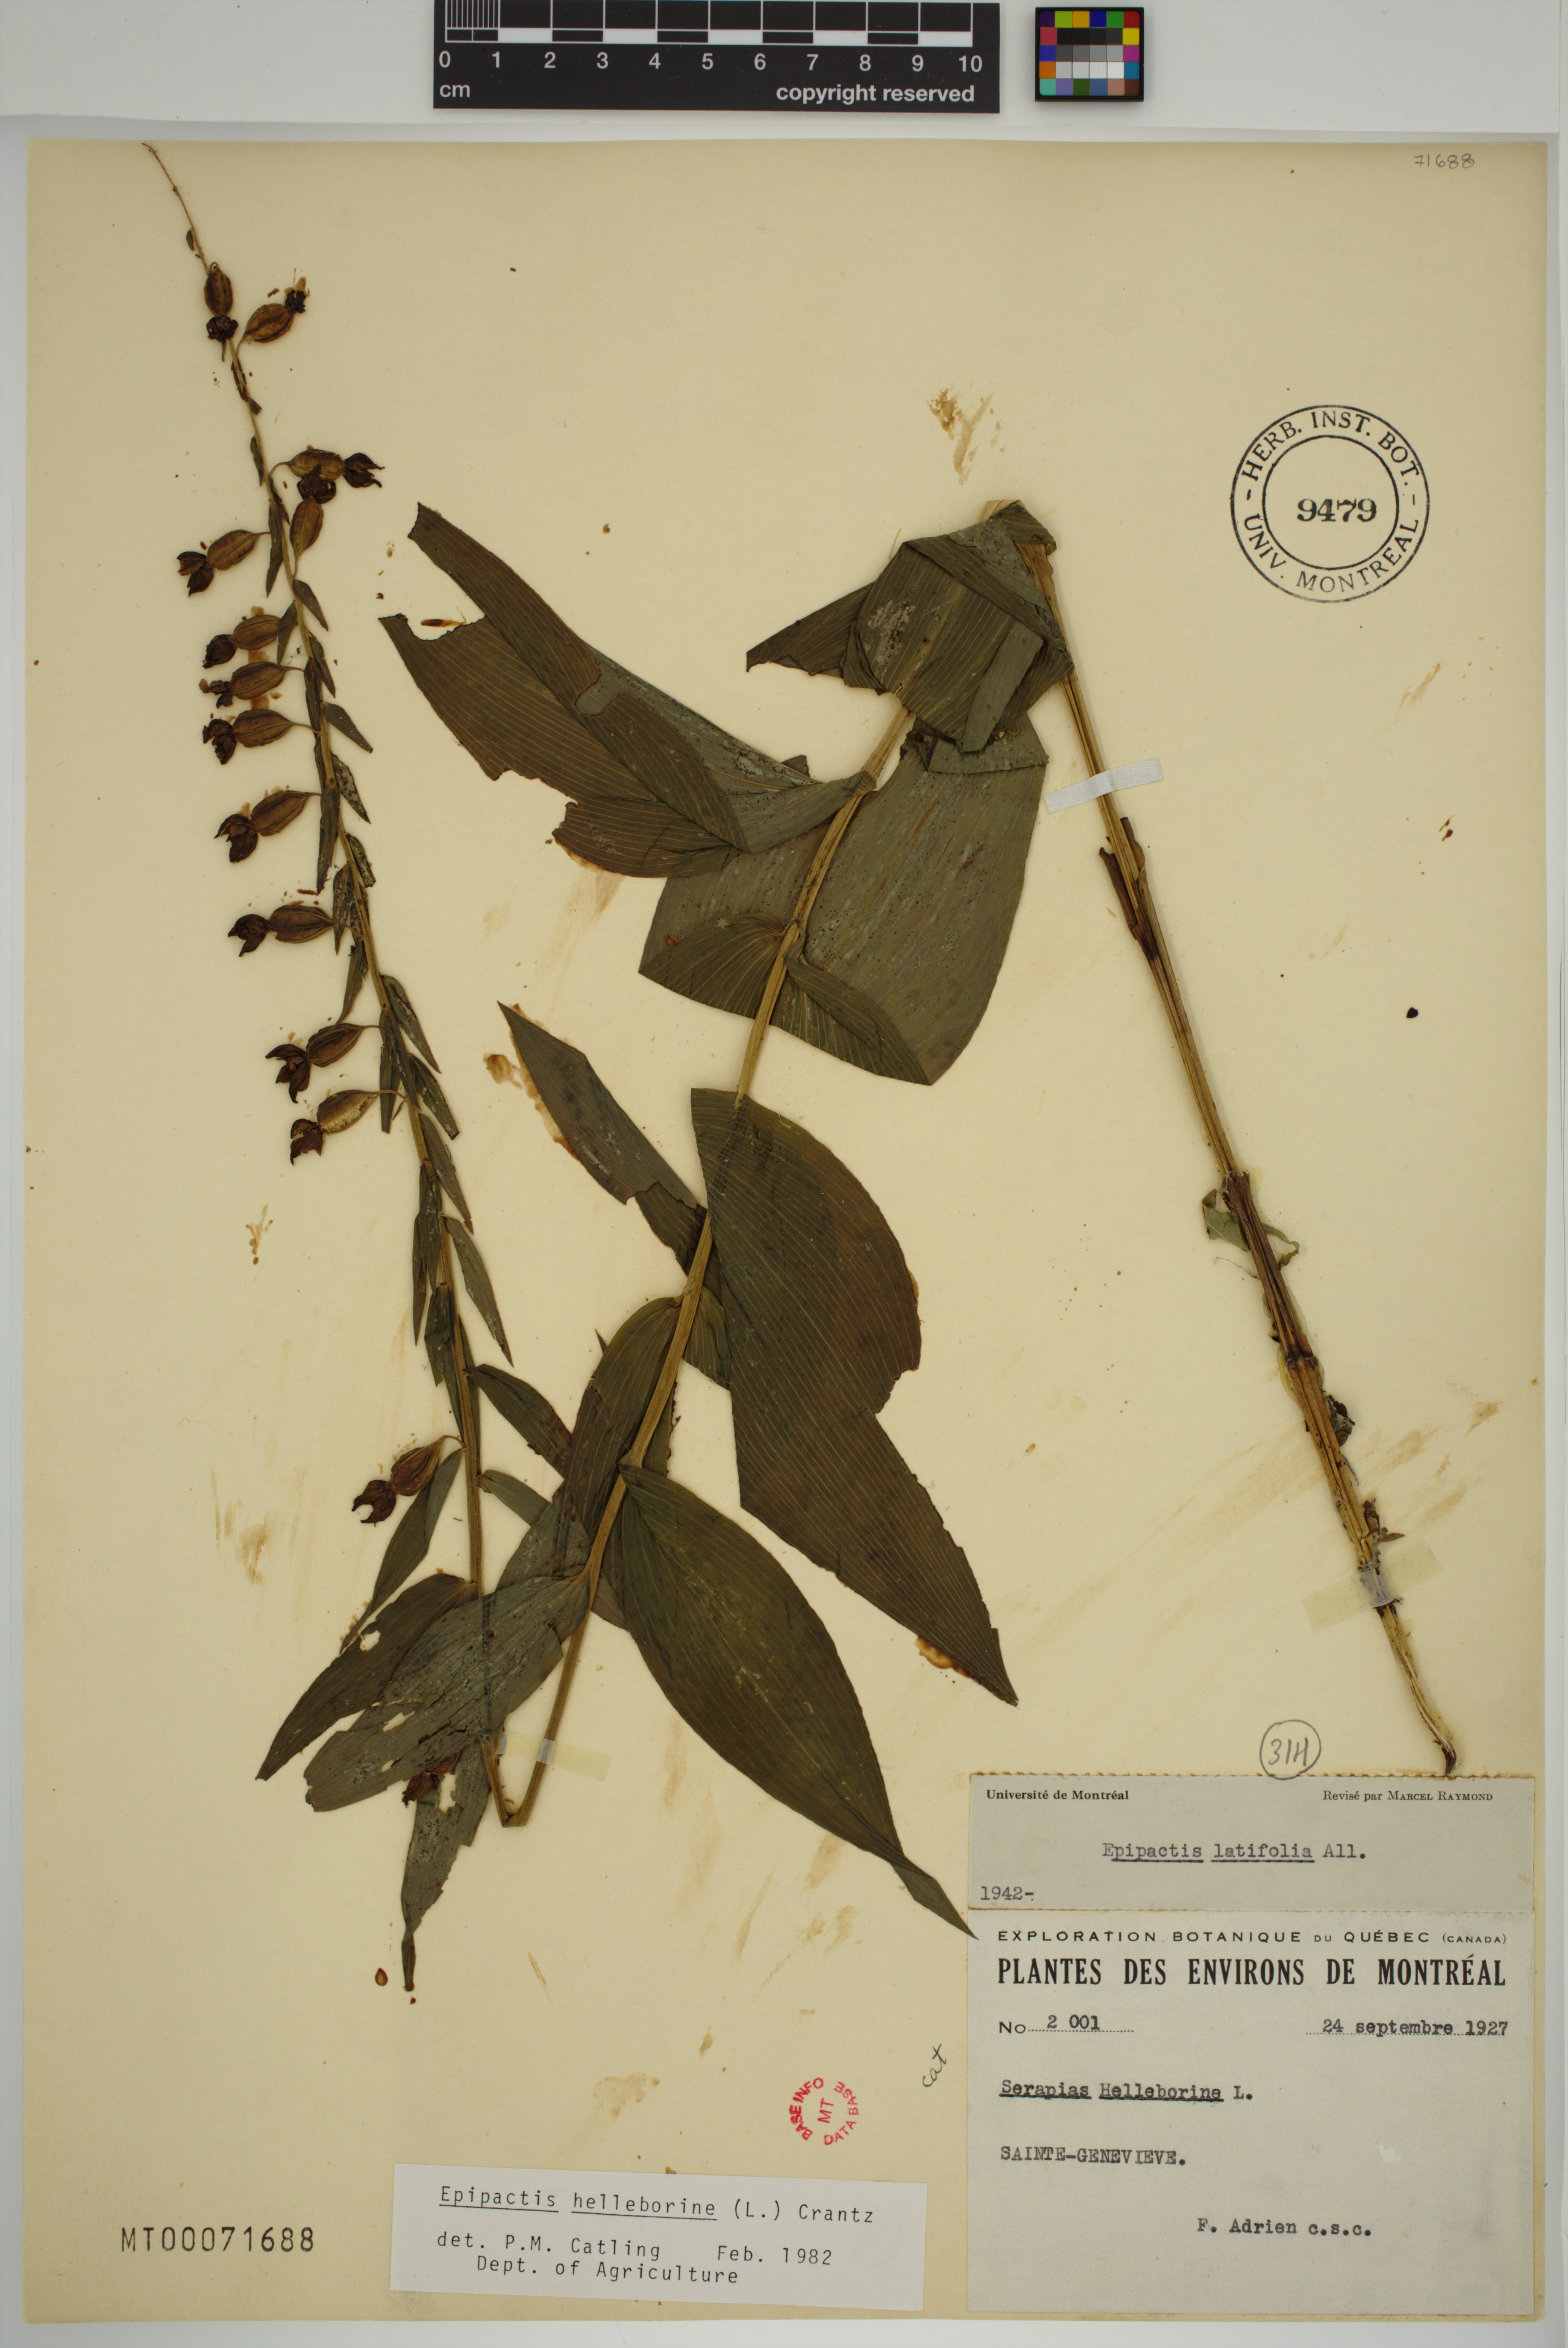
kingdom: Plantae
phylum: Tracheophyta
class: Liliopsida
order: Asparagales
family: Orchidaceae
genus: Epipactis
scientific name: Epipactis helleborine
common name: Broad-leaved helleborine
